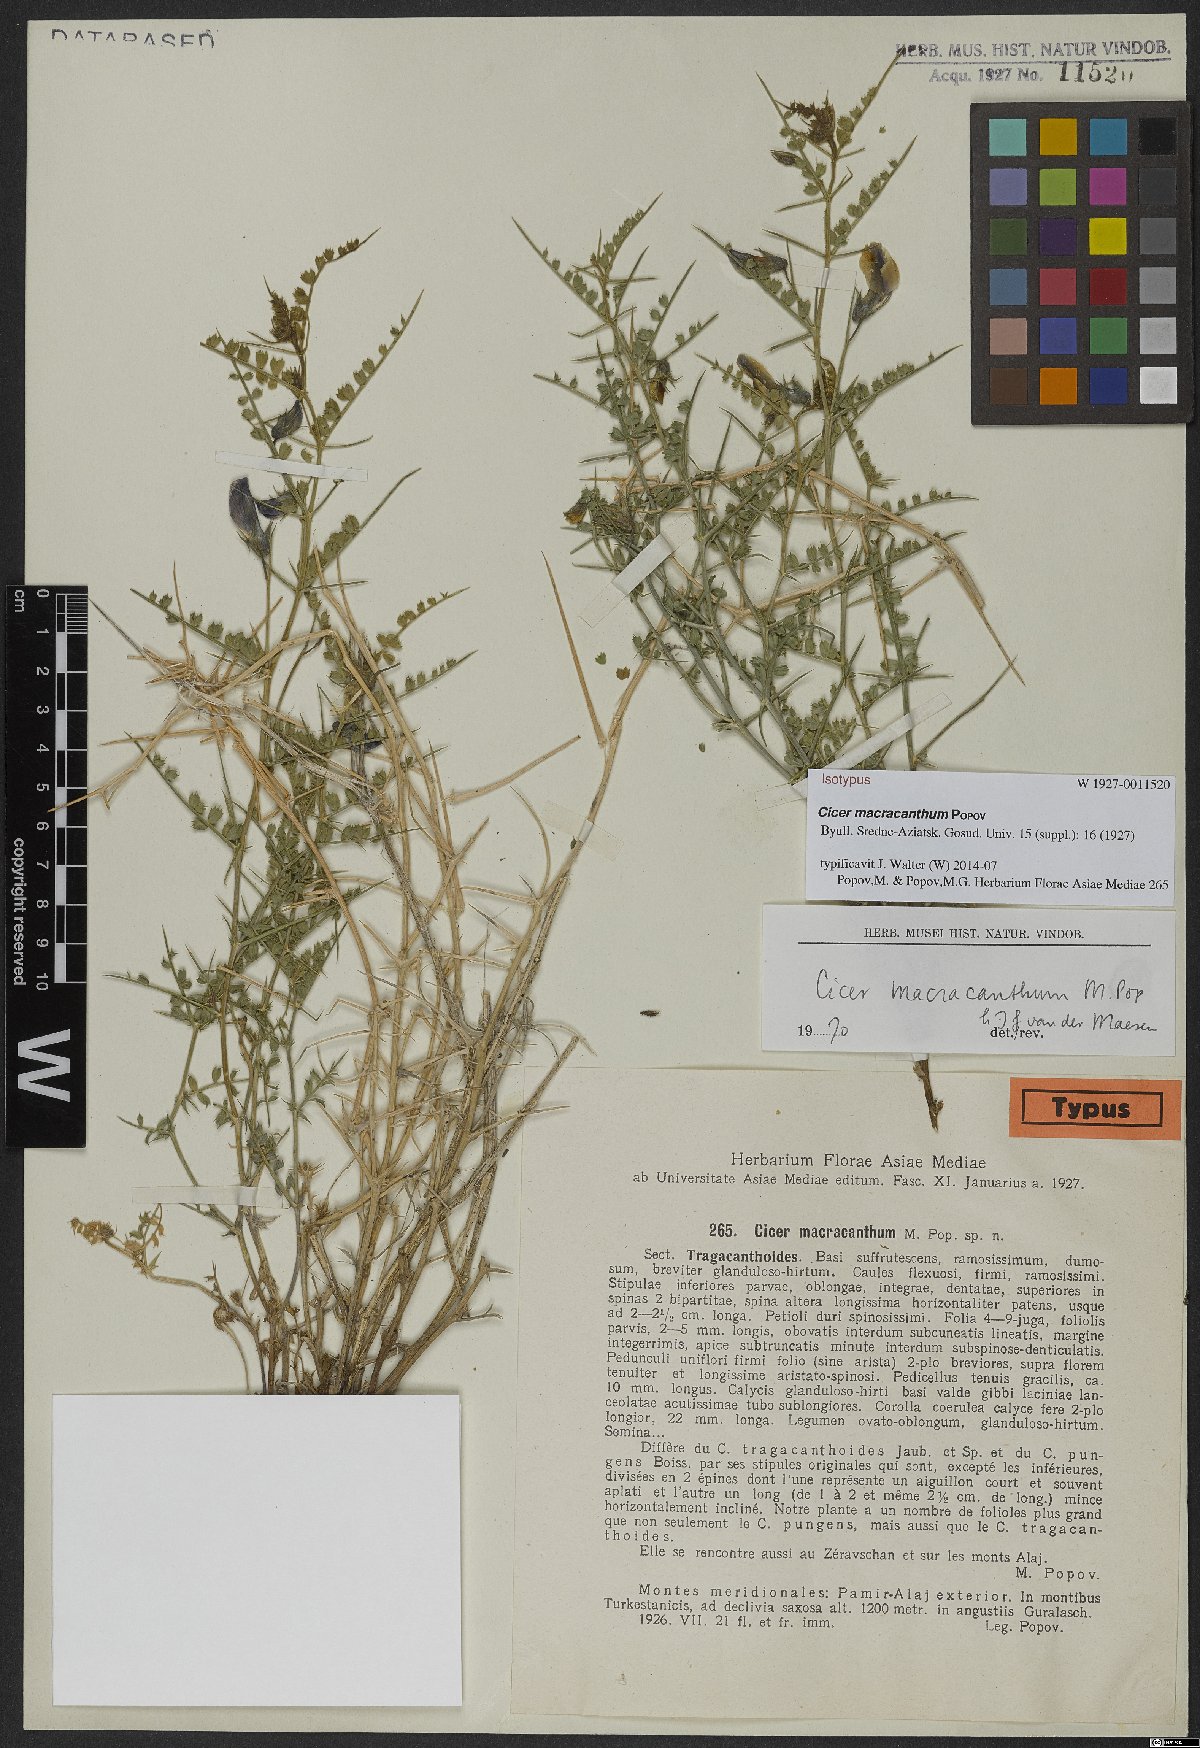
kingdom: Plantae
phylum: Tracheophyta
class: Magnoliopsida
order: Fabales
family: Fabaceae
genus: Cicer
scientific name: Cicer macracanthum
